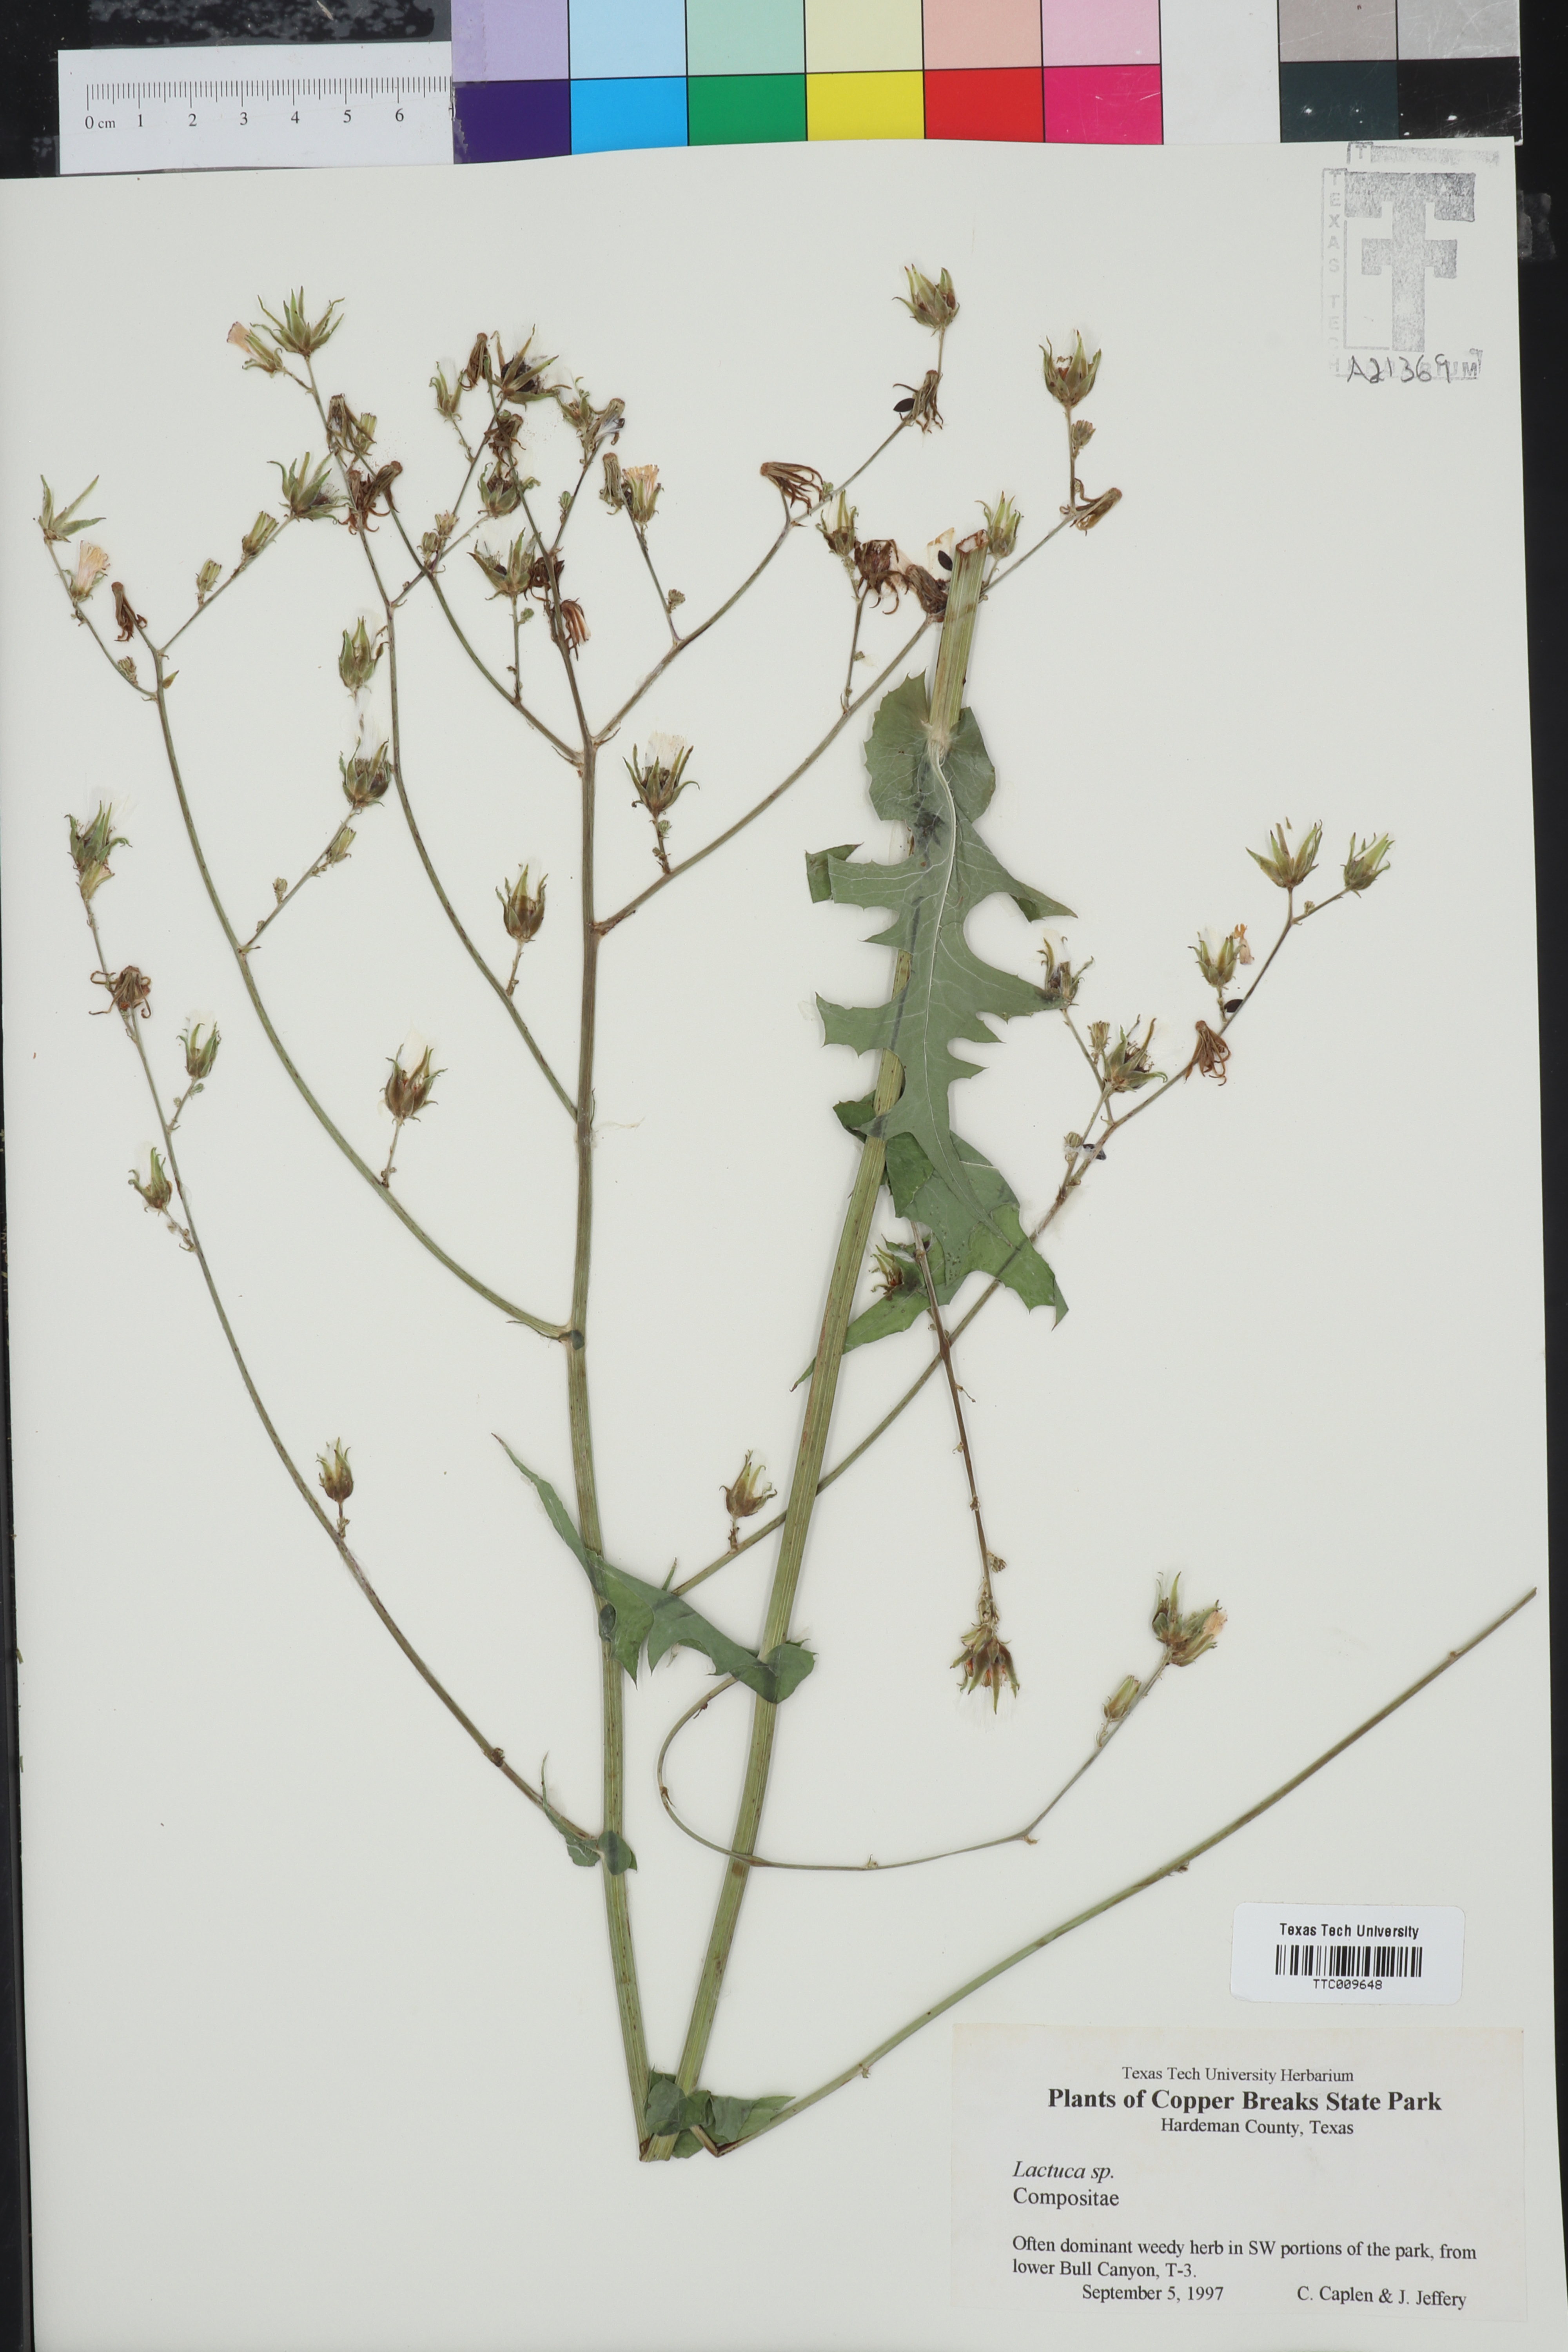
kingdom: Plantae
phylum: Tracheophyta
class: Magnoliopsida
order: Asterales
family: Asteraceae
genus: Lactuca
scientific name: Lactuca
